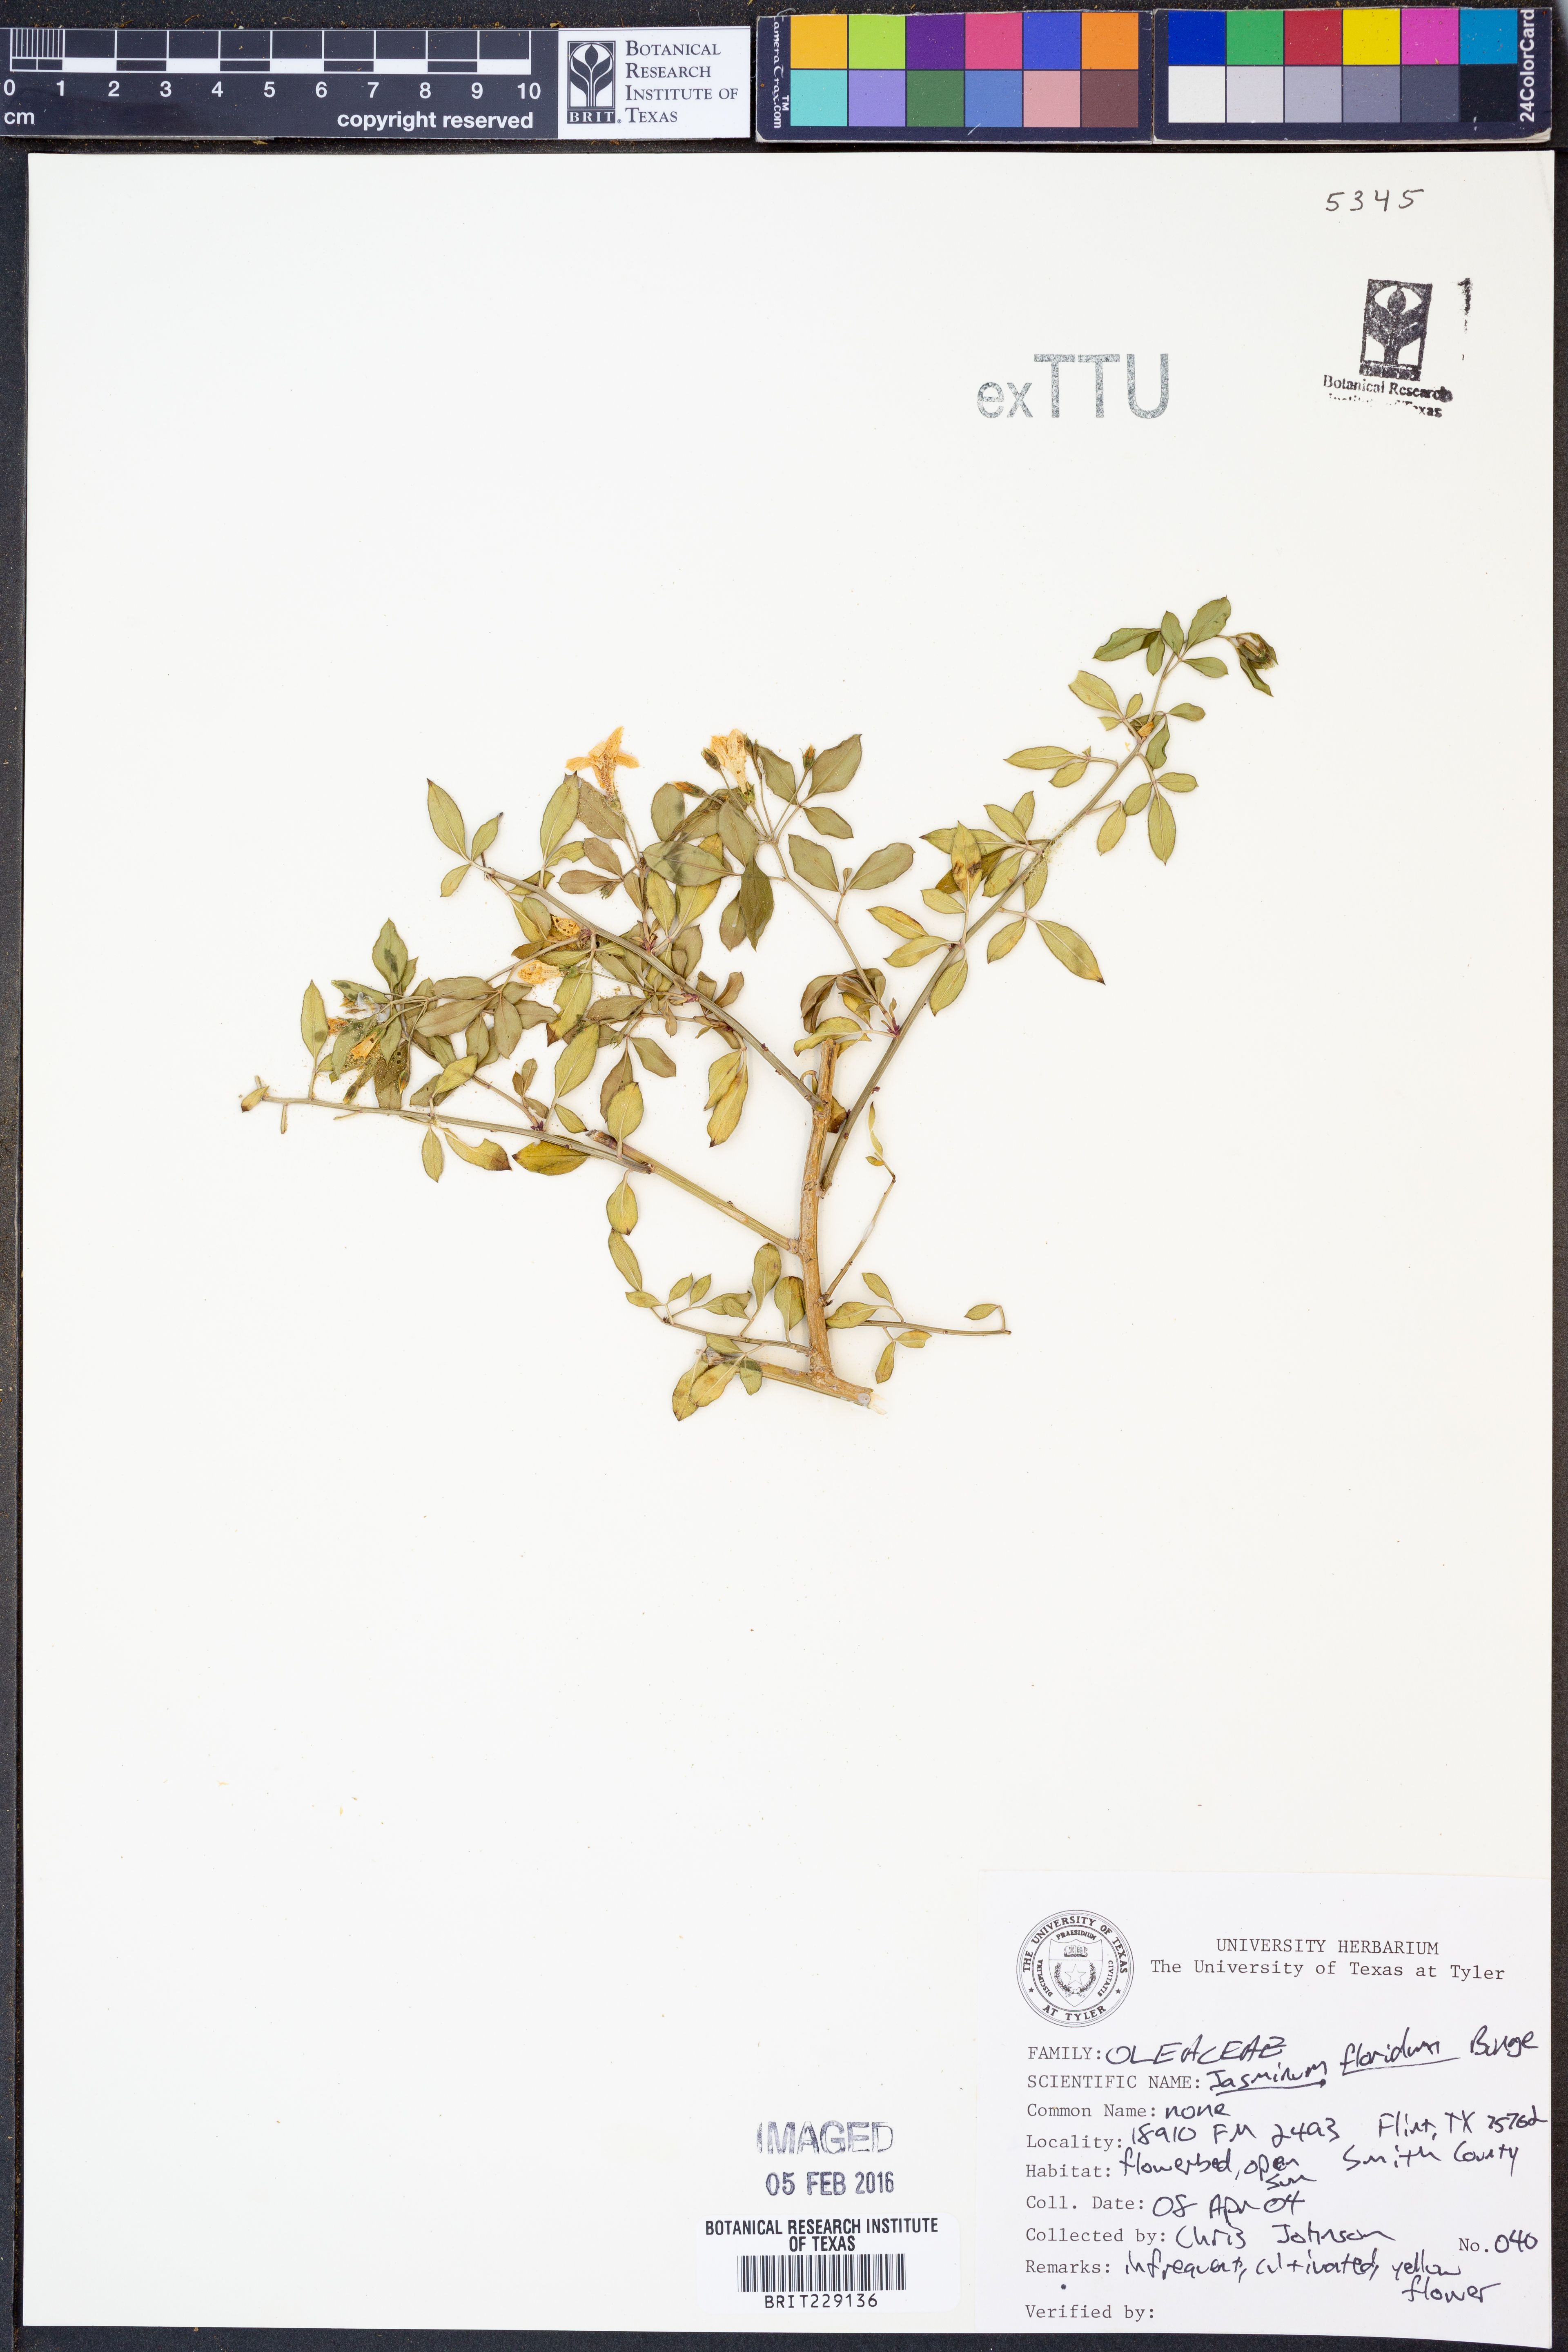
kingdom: Plantae
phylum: Tracheophyta
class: Magnoliopsida
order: Lamiales
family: Oleaceae
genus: Chrysojasminum
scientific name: Chrysojasminum floridum
